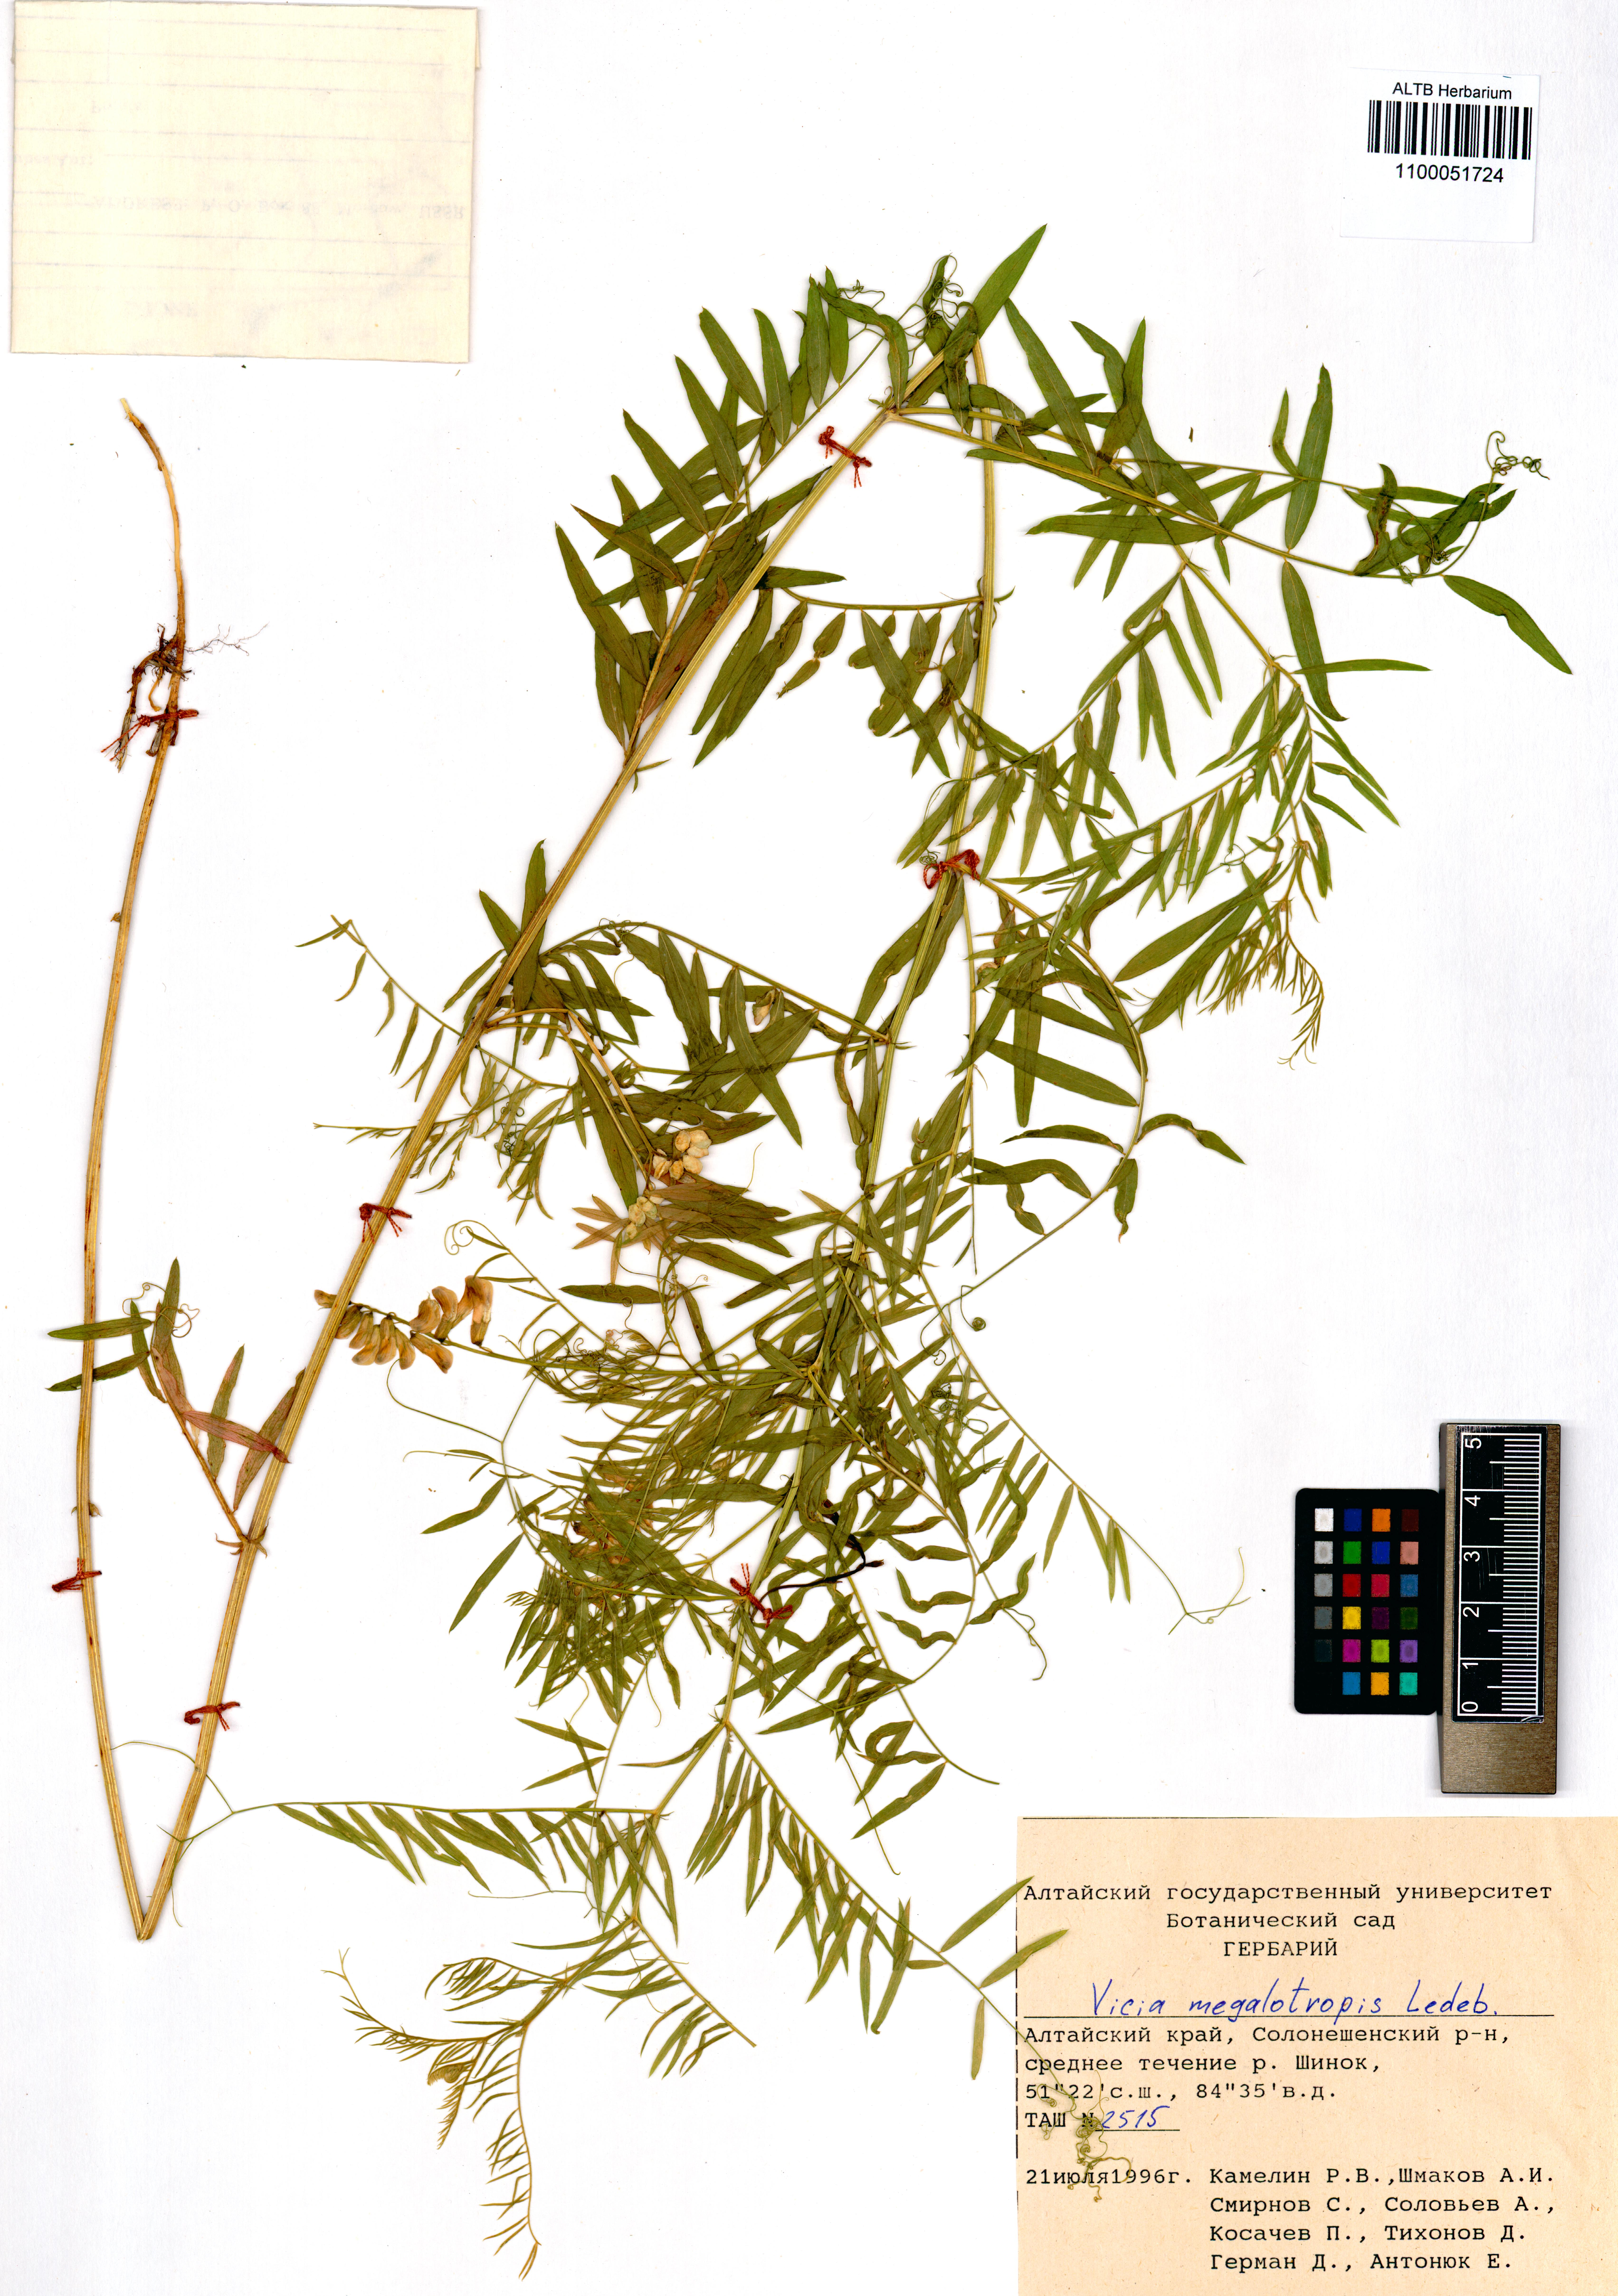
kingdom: Plantae
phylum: Tracheophyta
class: Magnoliopsida
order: Fabales
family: Fabaceae
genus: Vicia
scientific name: Vicia megalotropis
